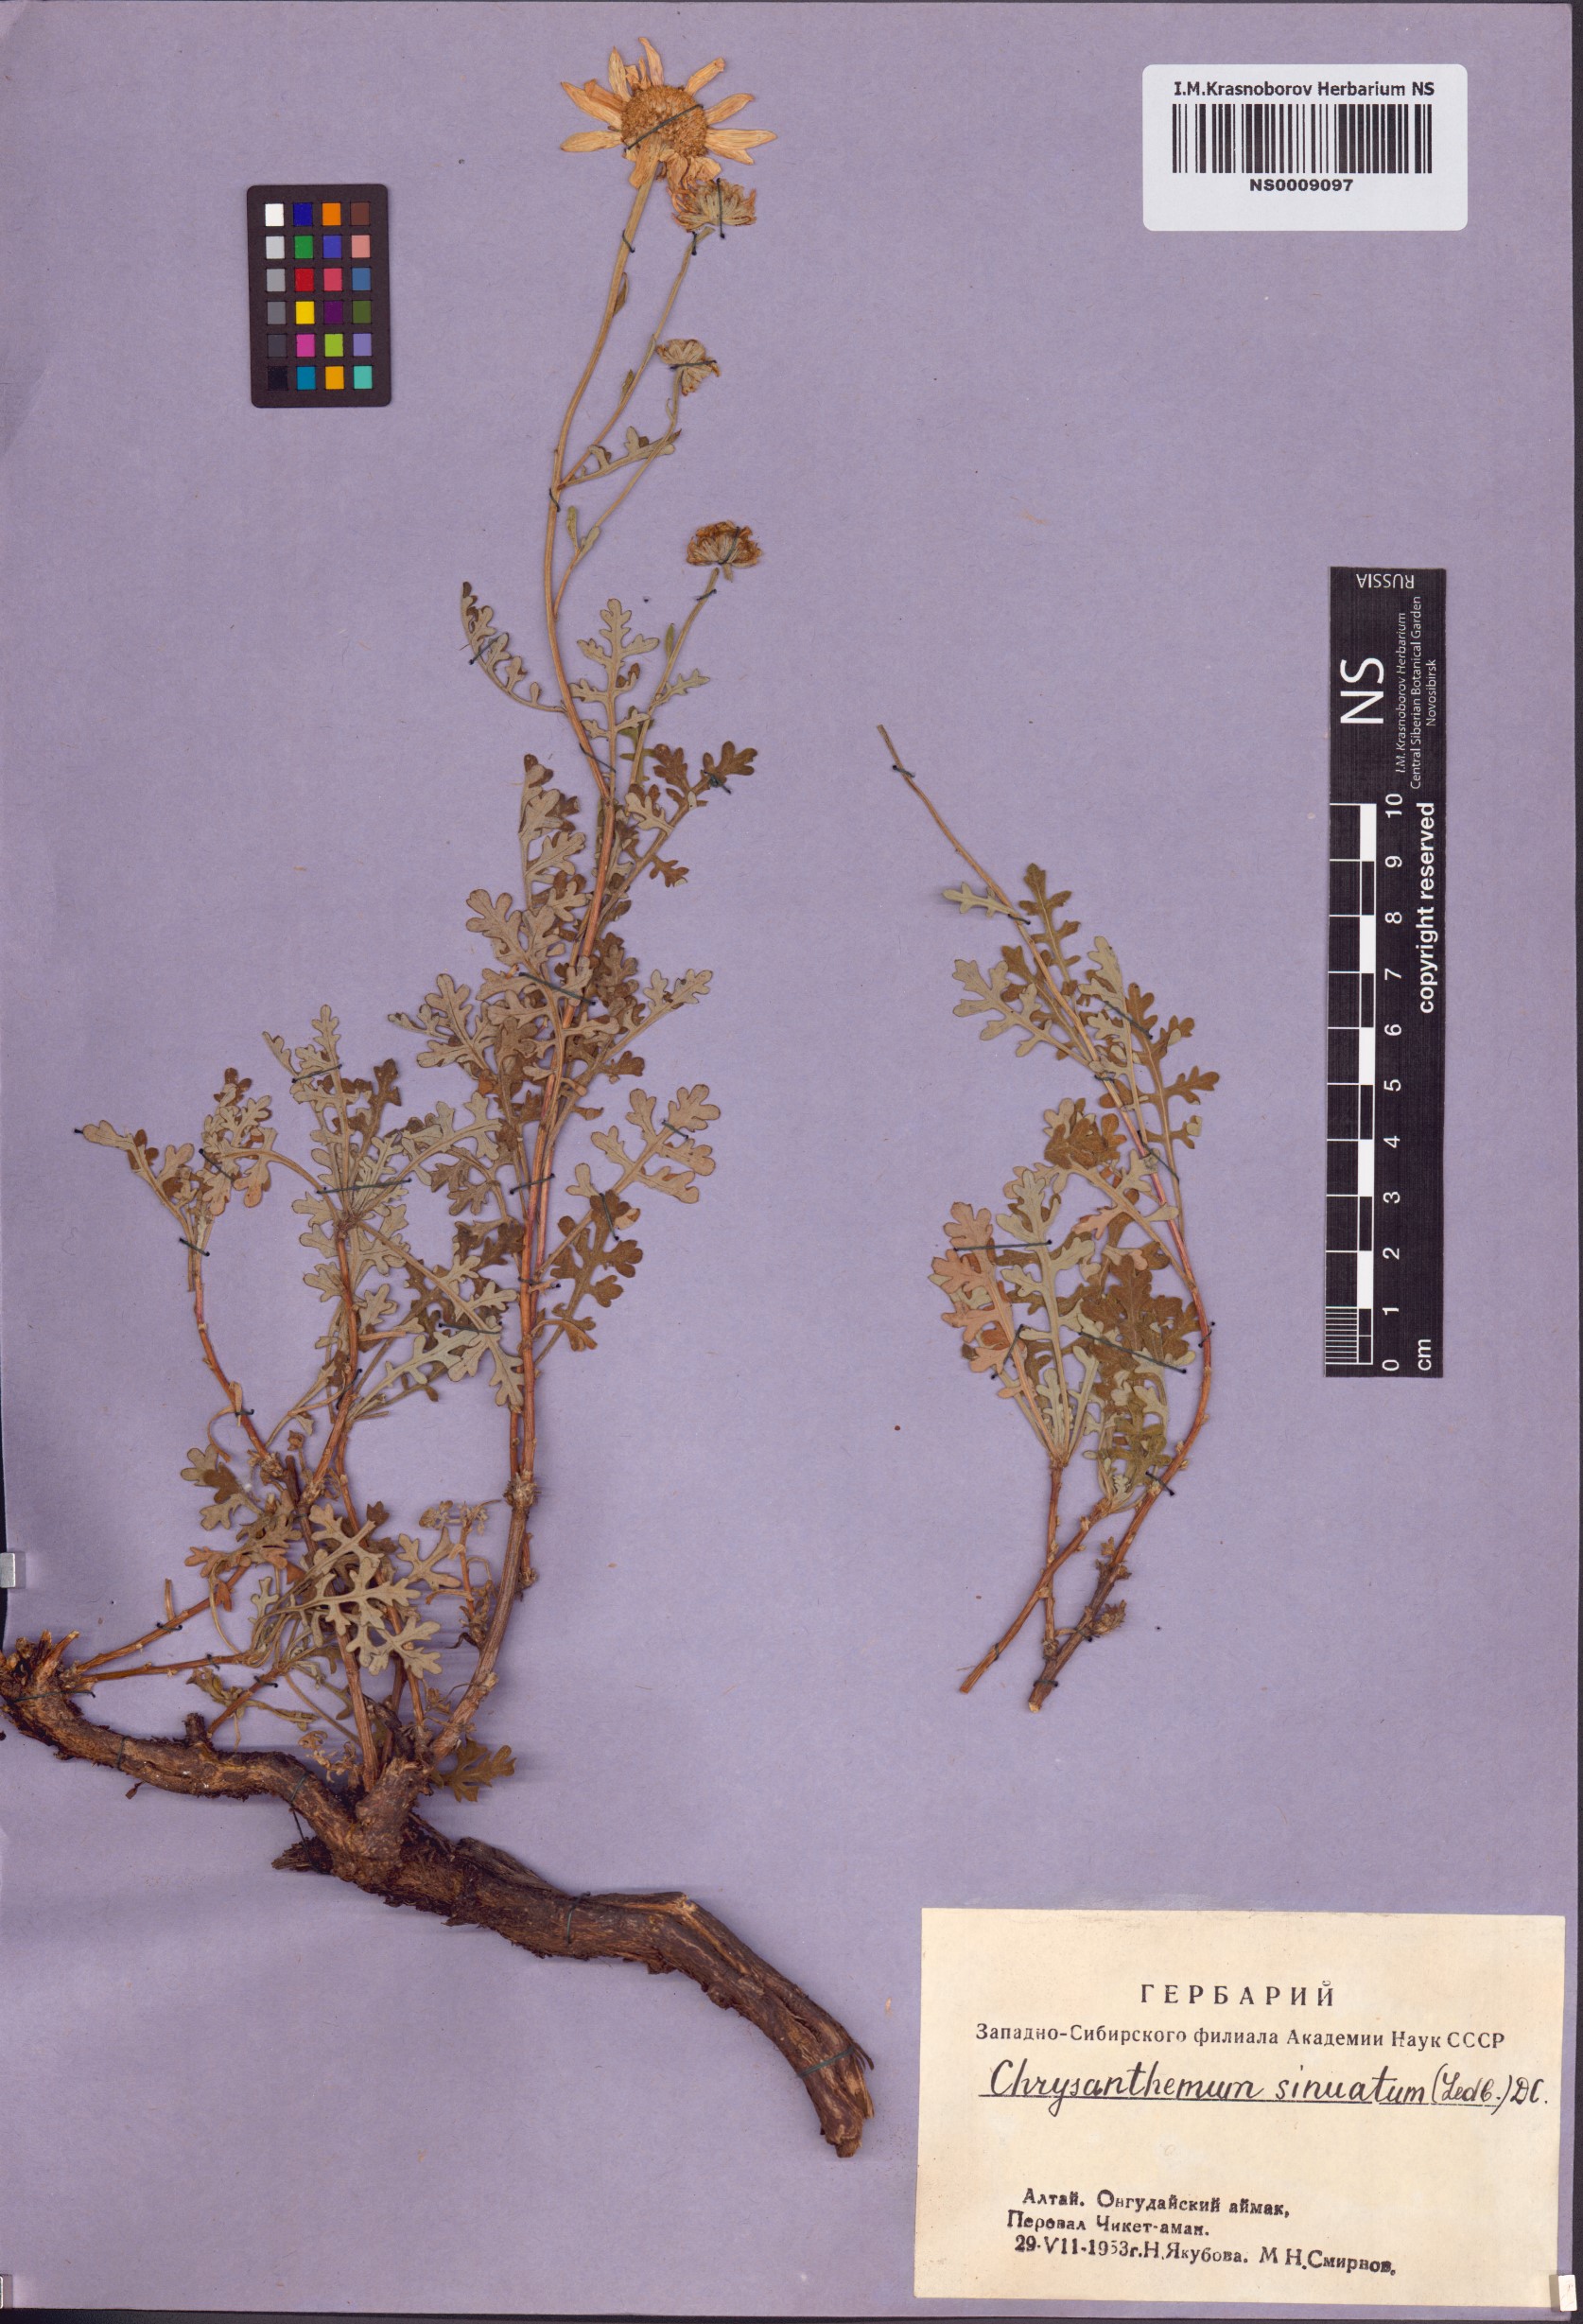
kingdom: Plantae
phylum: Tracheophyta
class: Magnoliopsida
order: Asterales
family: Asteraceae
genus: Chrysanthemum
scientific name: Chrysanthemum sinuatum
